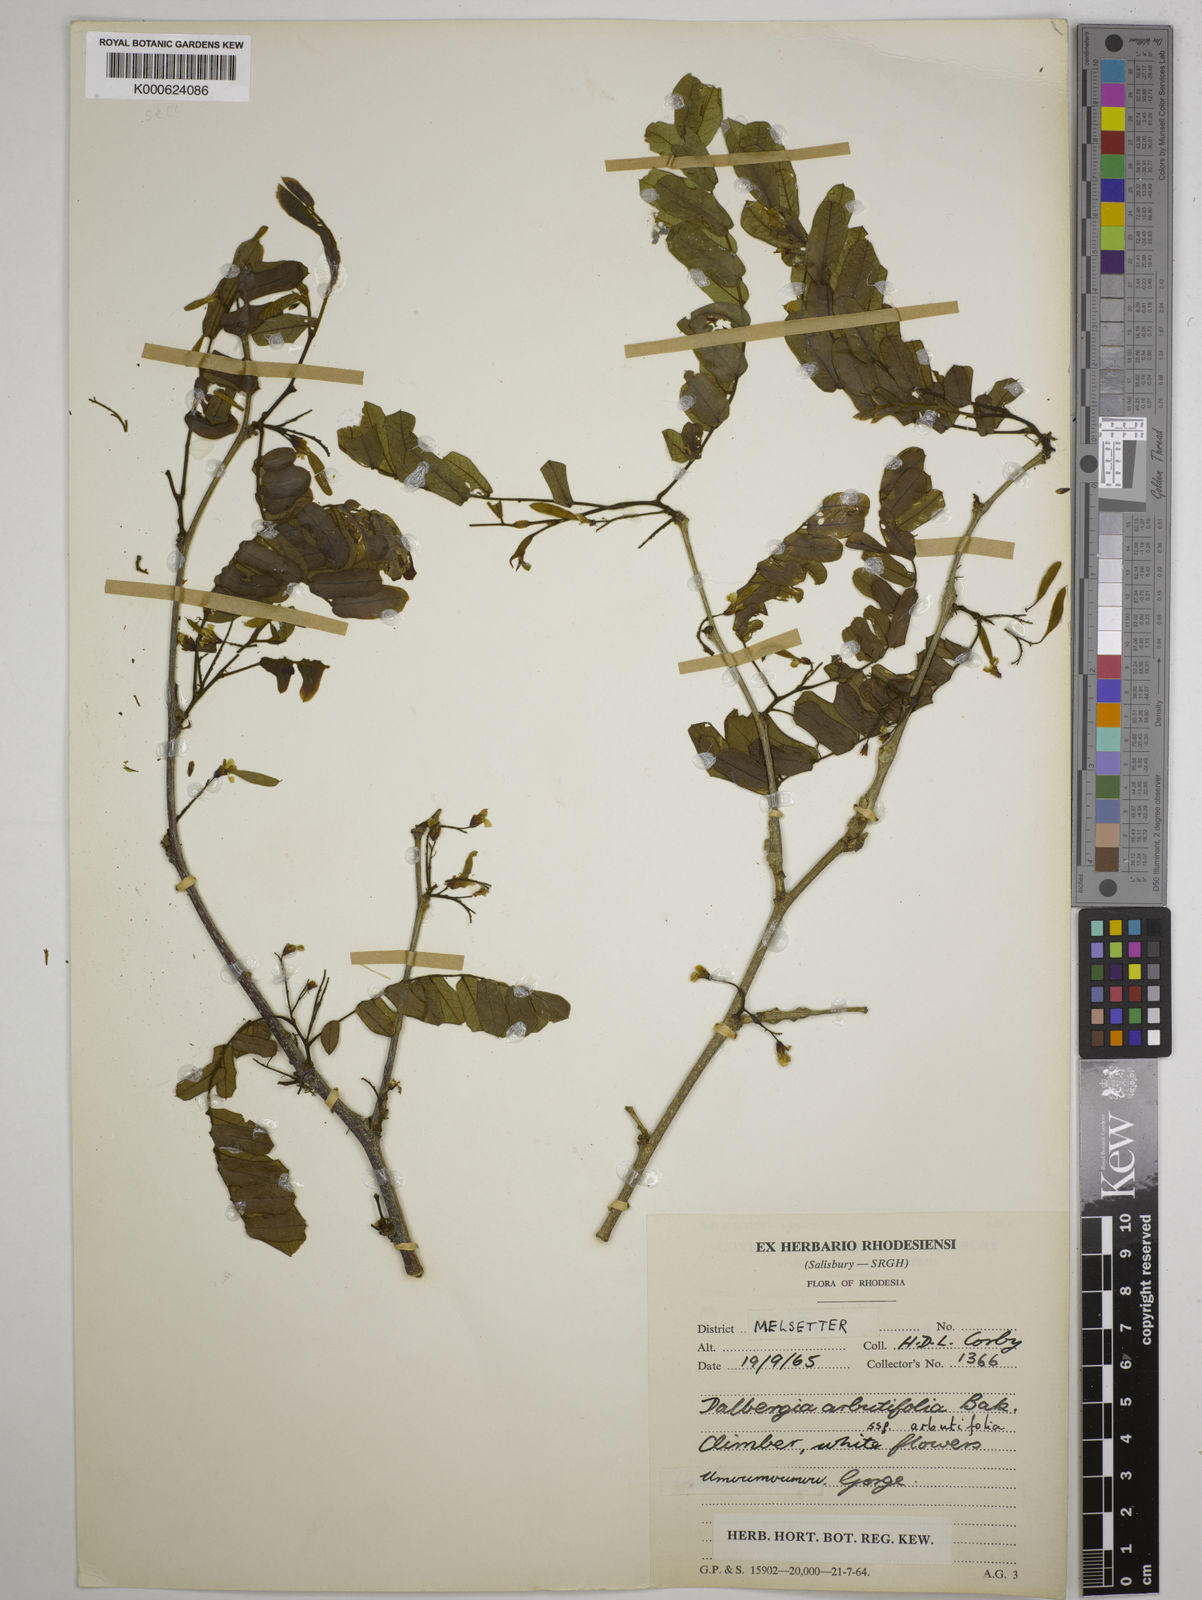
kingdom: Plantae
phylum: Tracheophyta
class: Magnoliopsida
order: Fabales
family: Fabaceae
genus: Dalbergia
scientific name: Dalbergia
